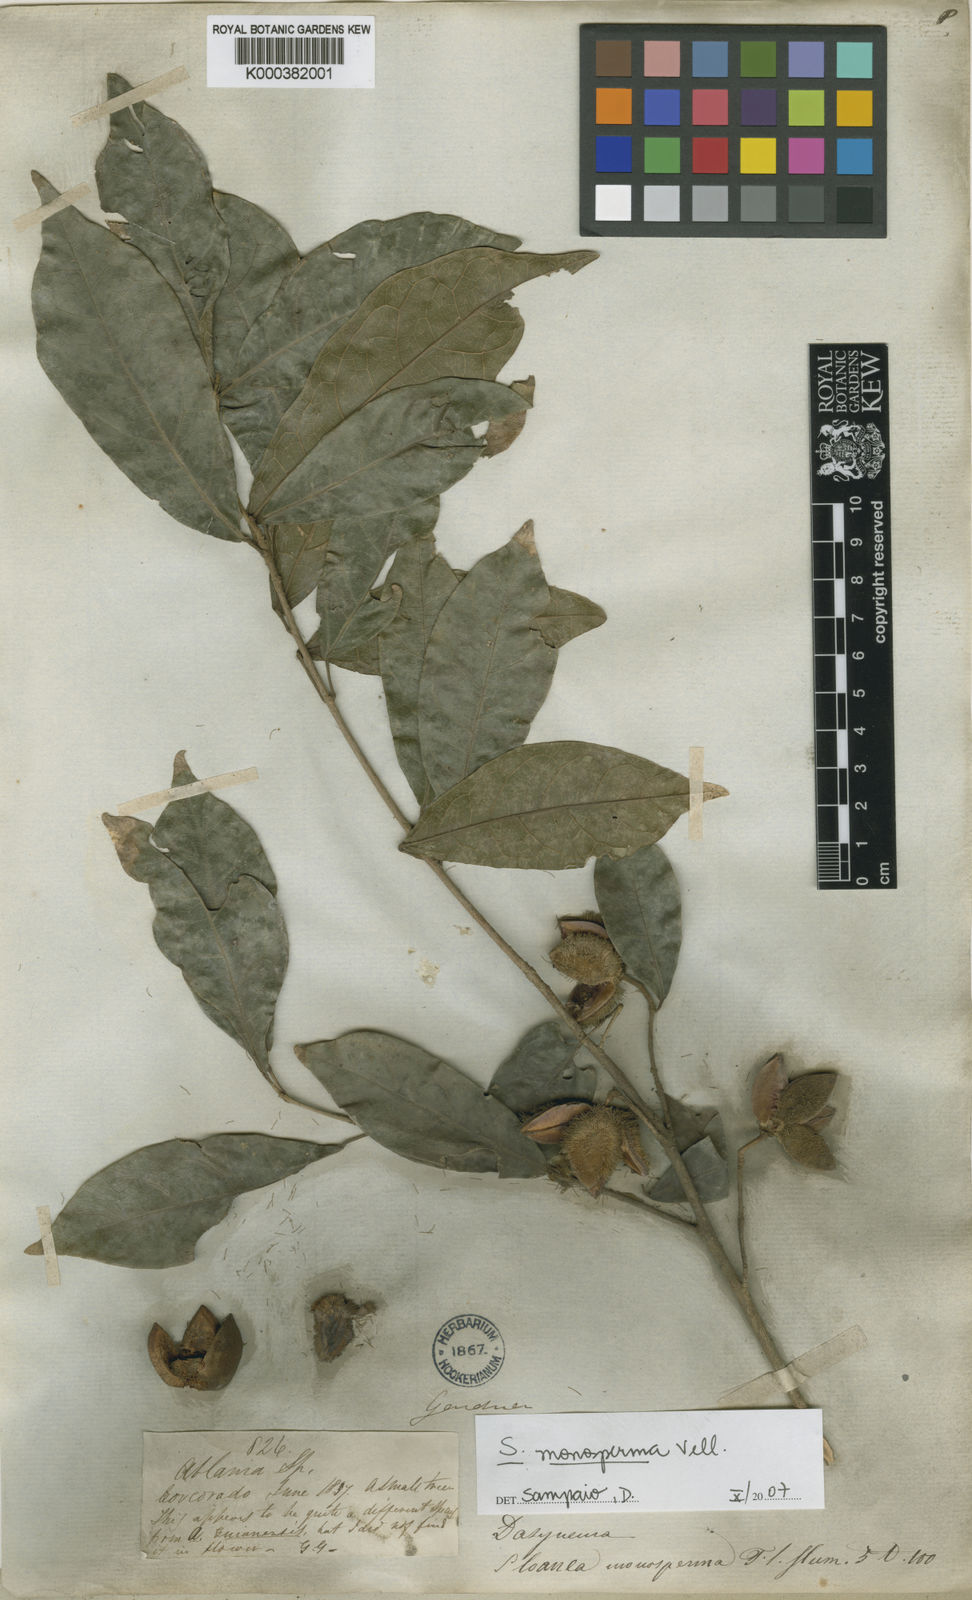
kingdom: Plantae
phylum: Tracheophyta
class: Magnoliopsida
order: Oxalidales
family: Elaeocarpaceae
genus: Sloanea
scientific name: Sloanea hirsuta
